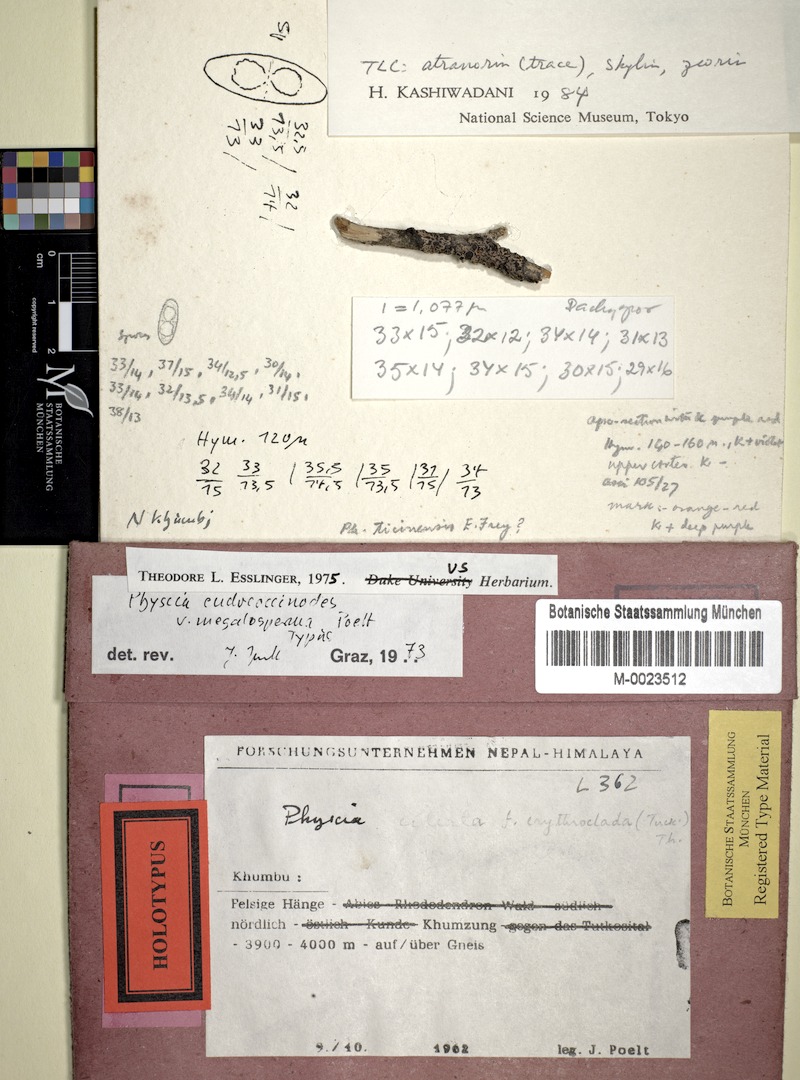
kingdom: Fungi
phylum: Ascomycota
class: Lecanoromycetes
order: Caliciales
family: Physciaceae
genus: Phaeophyscia
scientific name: Phaeophyscia endococcinodes
